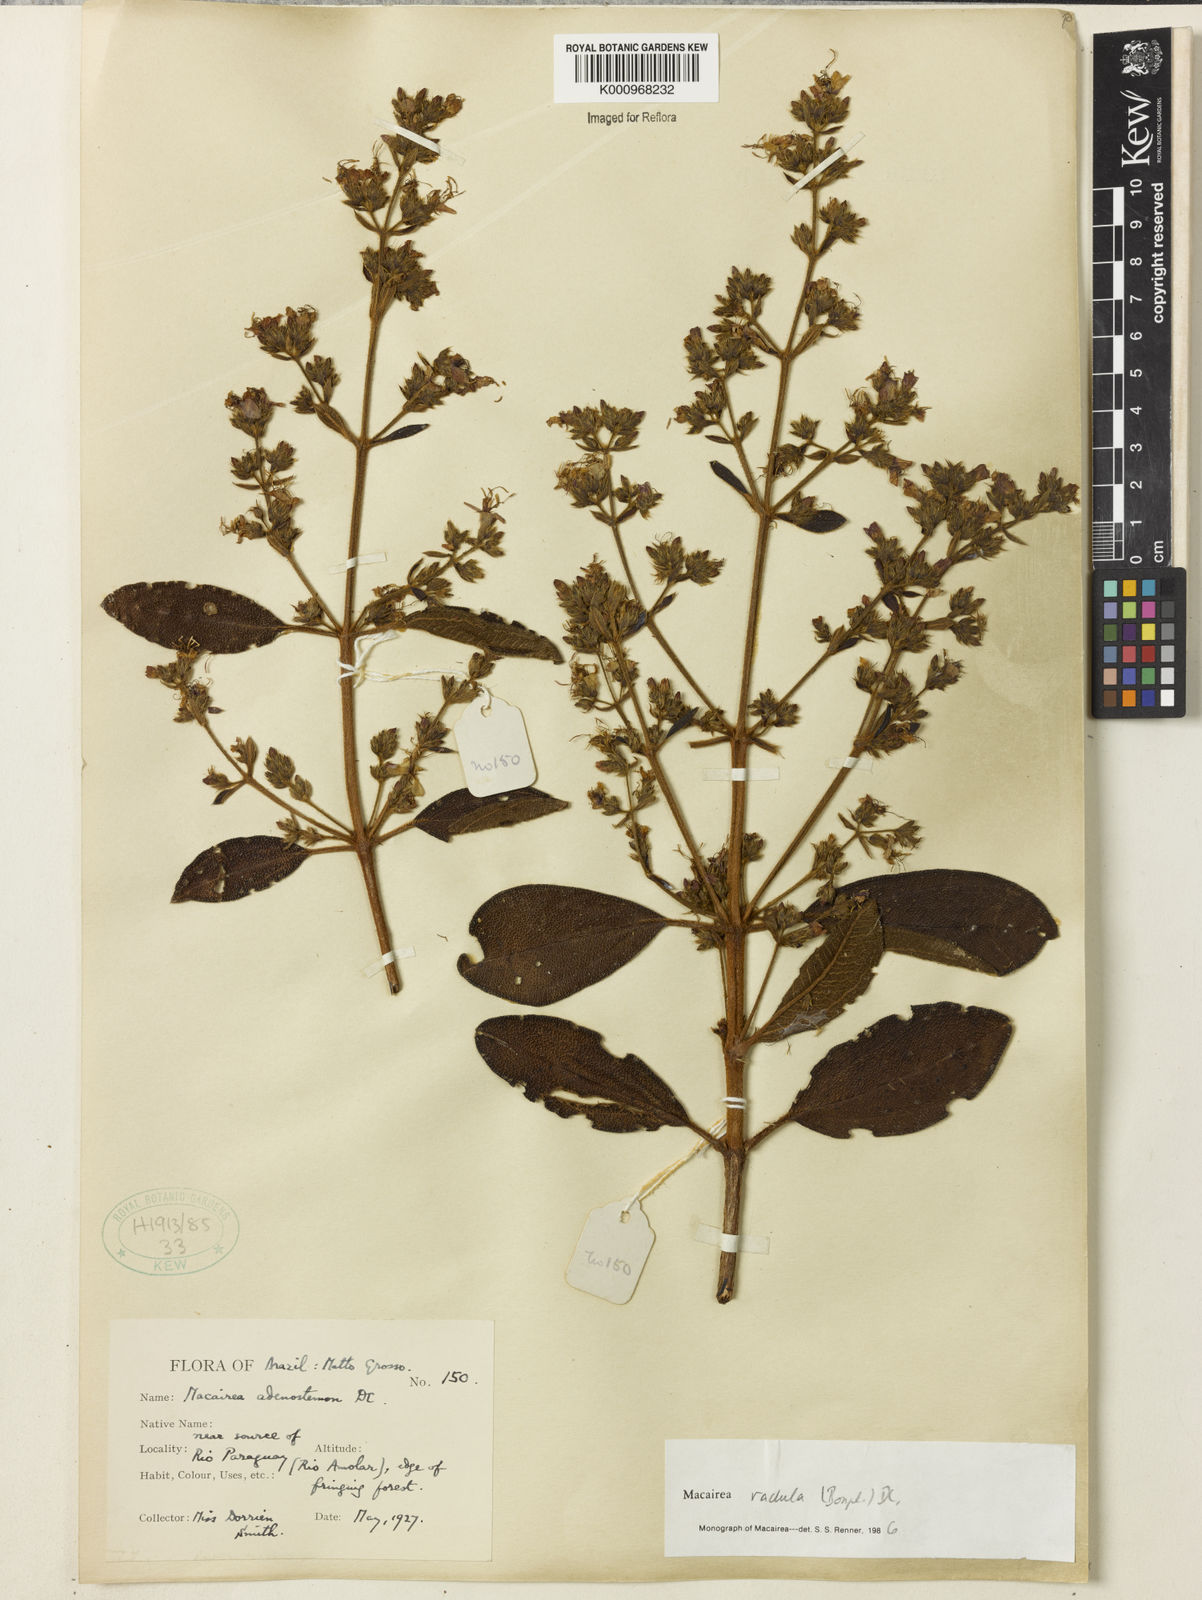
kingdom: Plantae
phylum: Tracheophyta
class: Magnoliopsida
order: Myrtales
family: Melastomataceae
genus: Macairea
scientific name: Macairea radula
